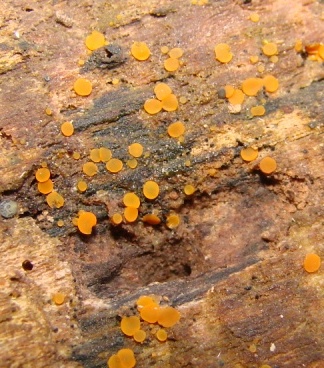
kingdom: Fungi
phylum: Ascomycota
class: Orbiliomycetes
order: Orbiliales
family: Orbiliaceae
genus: Orbilia
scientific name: Orbilia xanthostigma
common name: krumsporet voksskive
